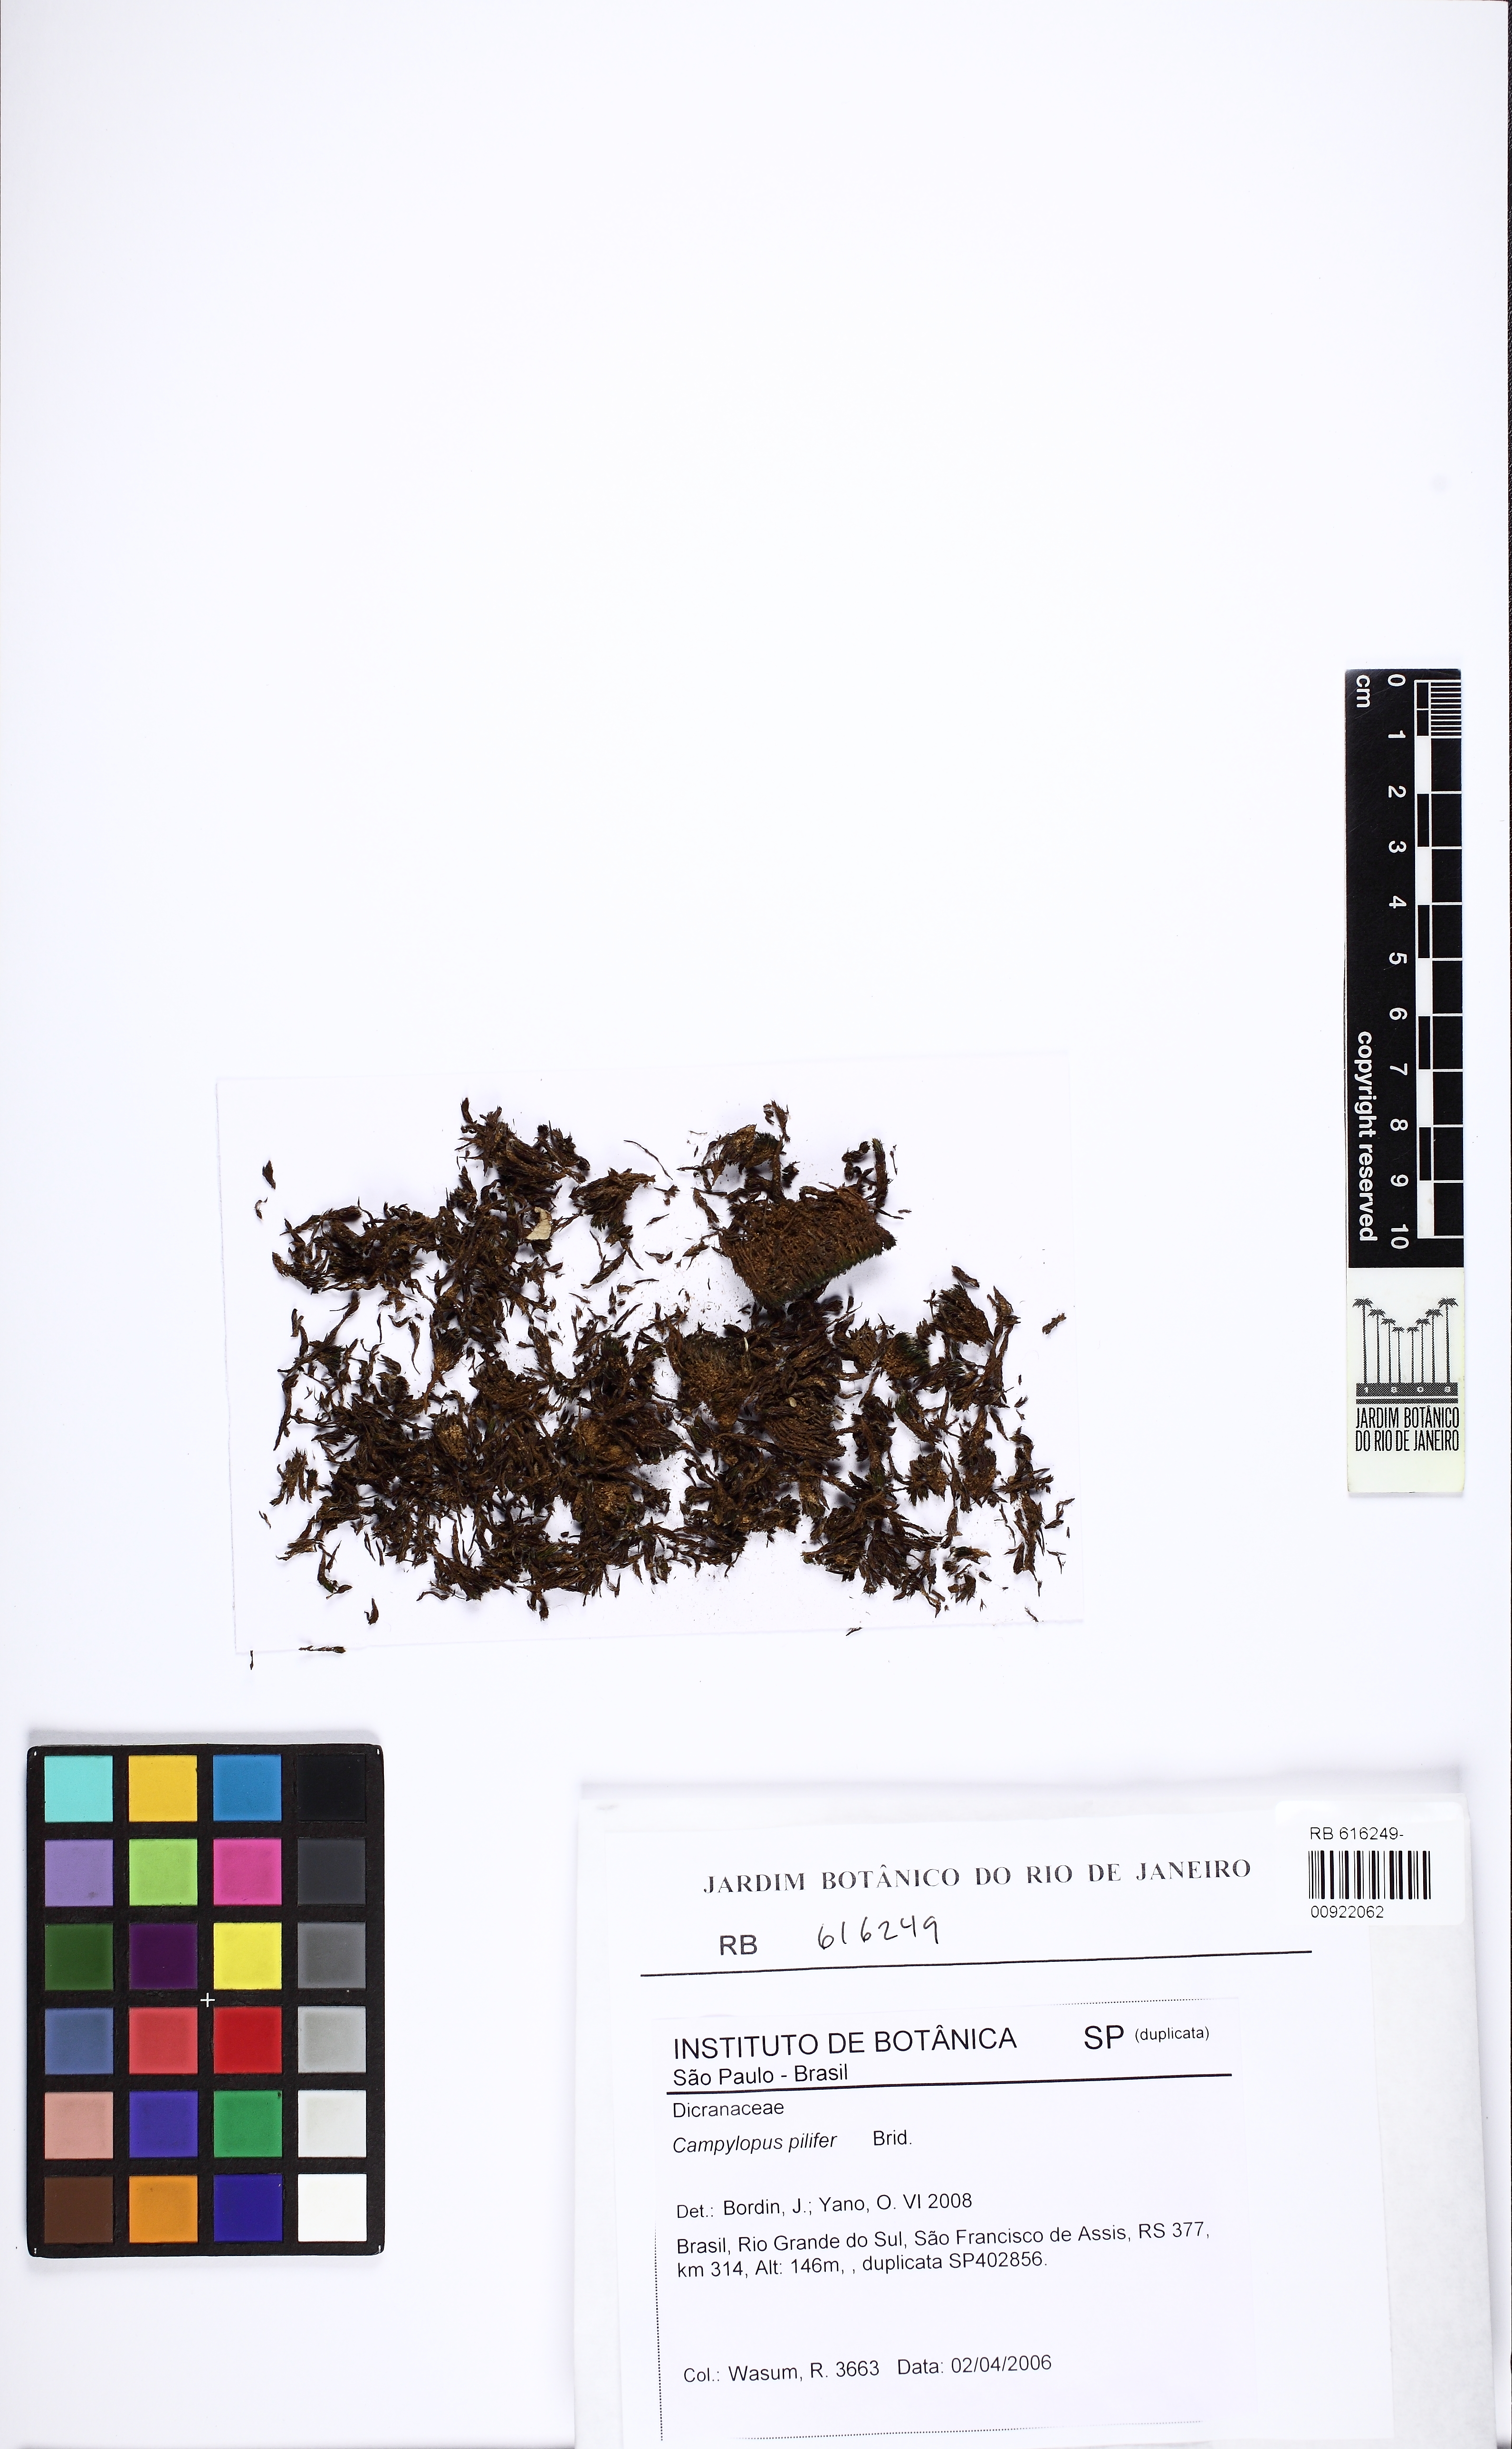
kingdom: Plantae
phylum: Bryophyta
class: Bryopsida
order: Dicranales
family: Leucobryaceae
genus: Campylopus
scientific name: Campylopus pilifer
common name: Campylopus moss
